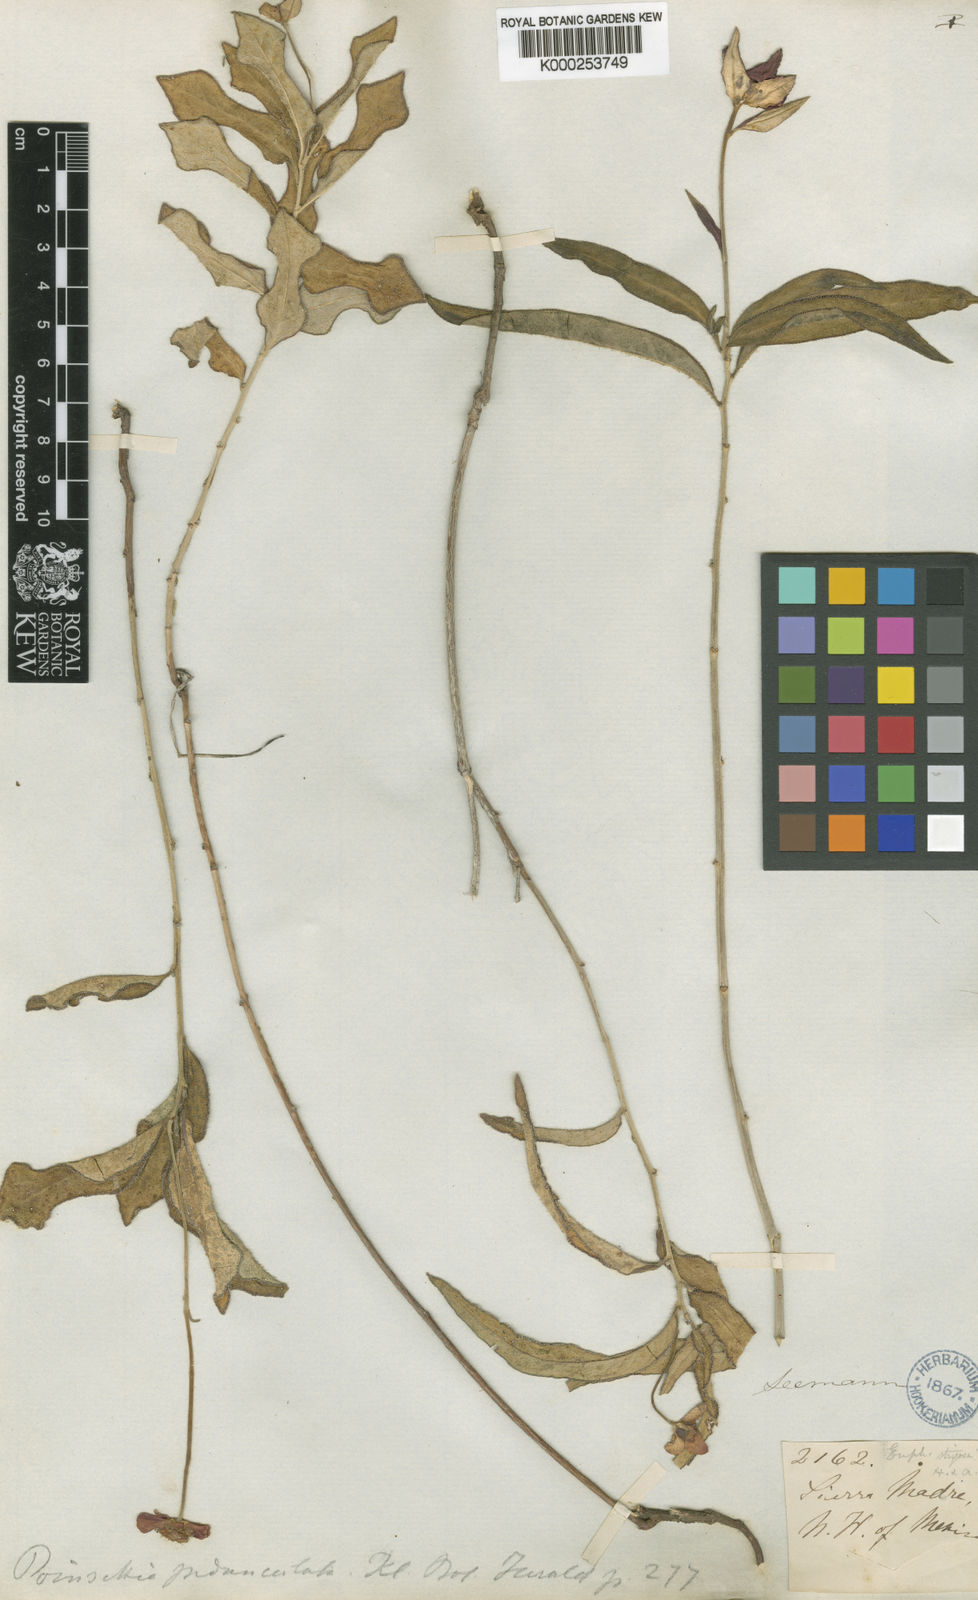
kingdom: Plantae
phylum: Tracheophyta
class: Magnoliopsida
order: Malpighiales
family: Euphorbiaceae
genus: Euphorbia
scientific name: Euphorbia strigosa
